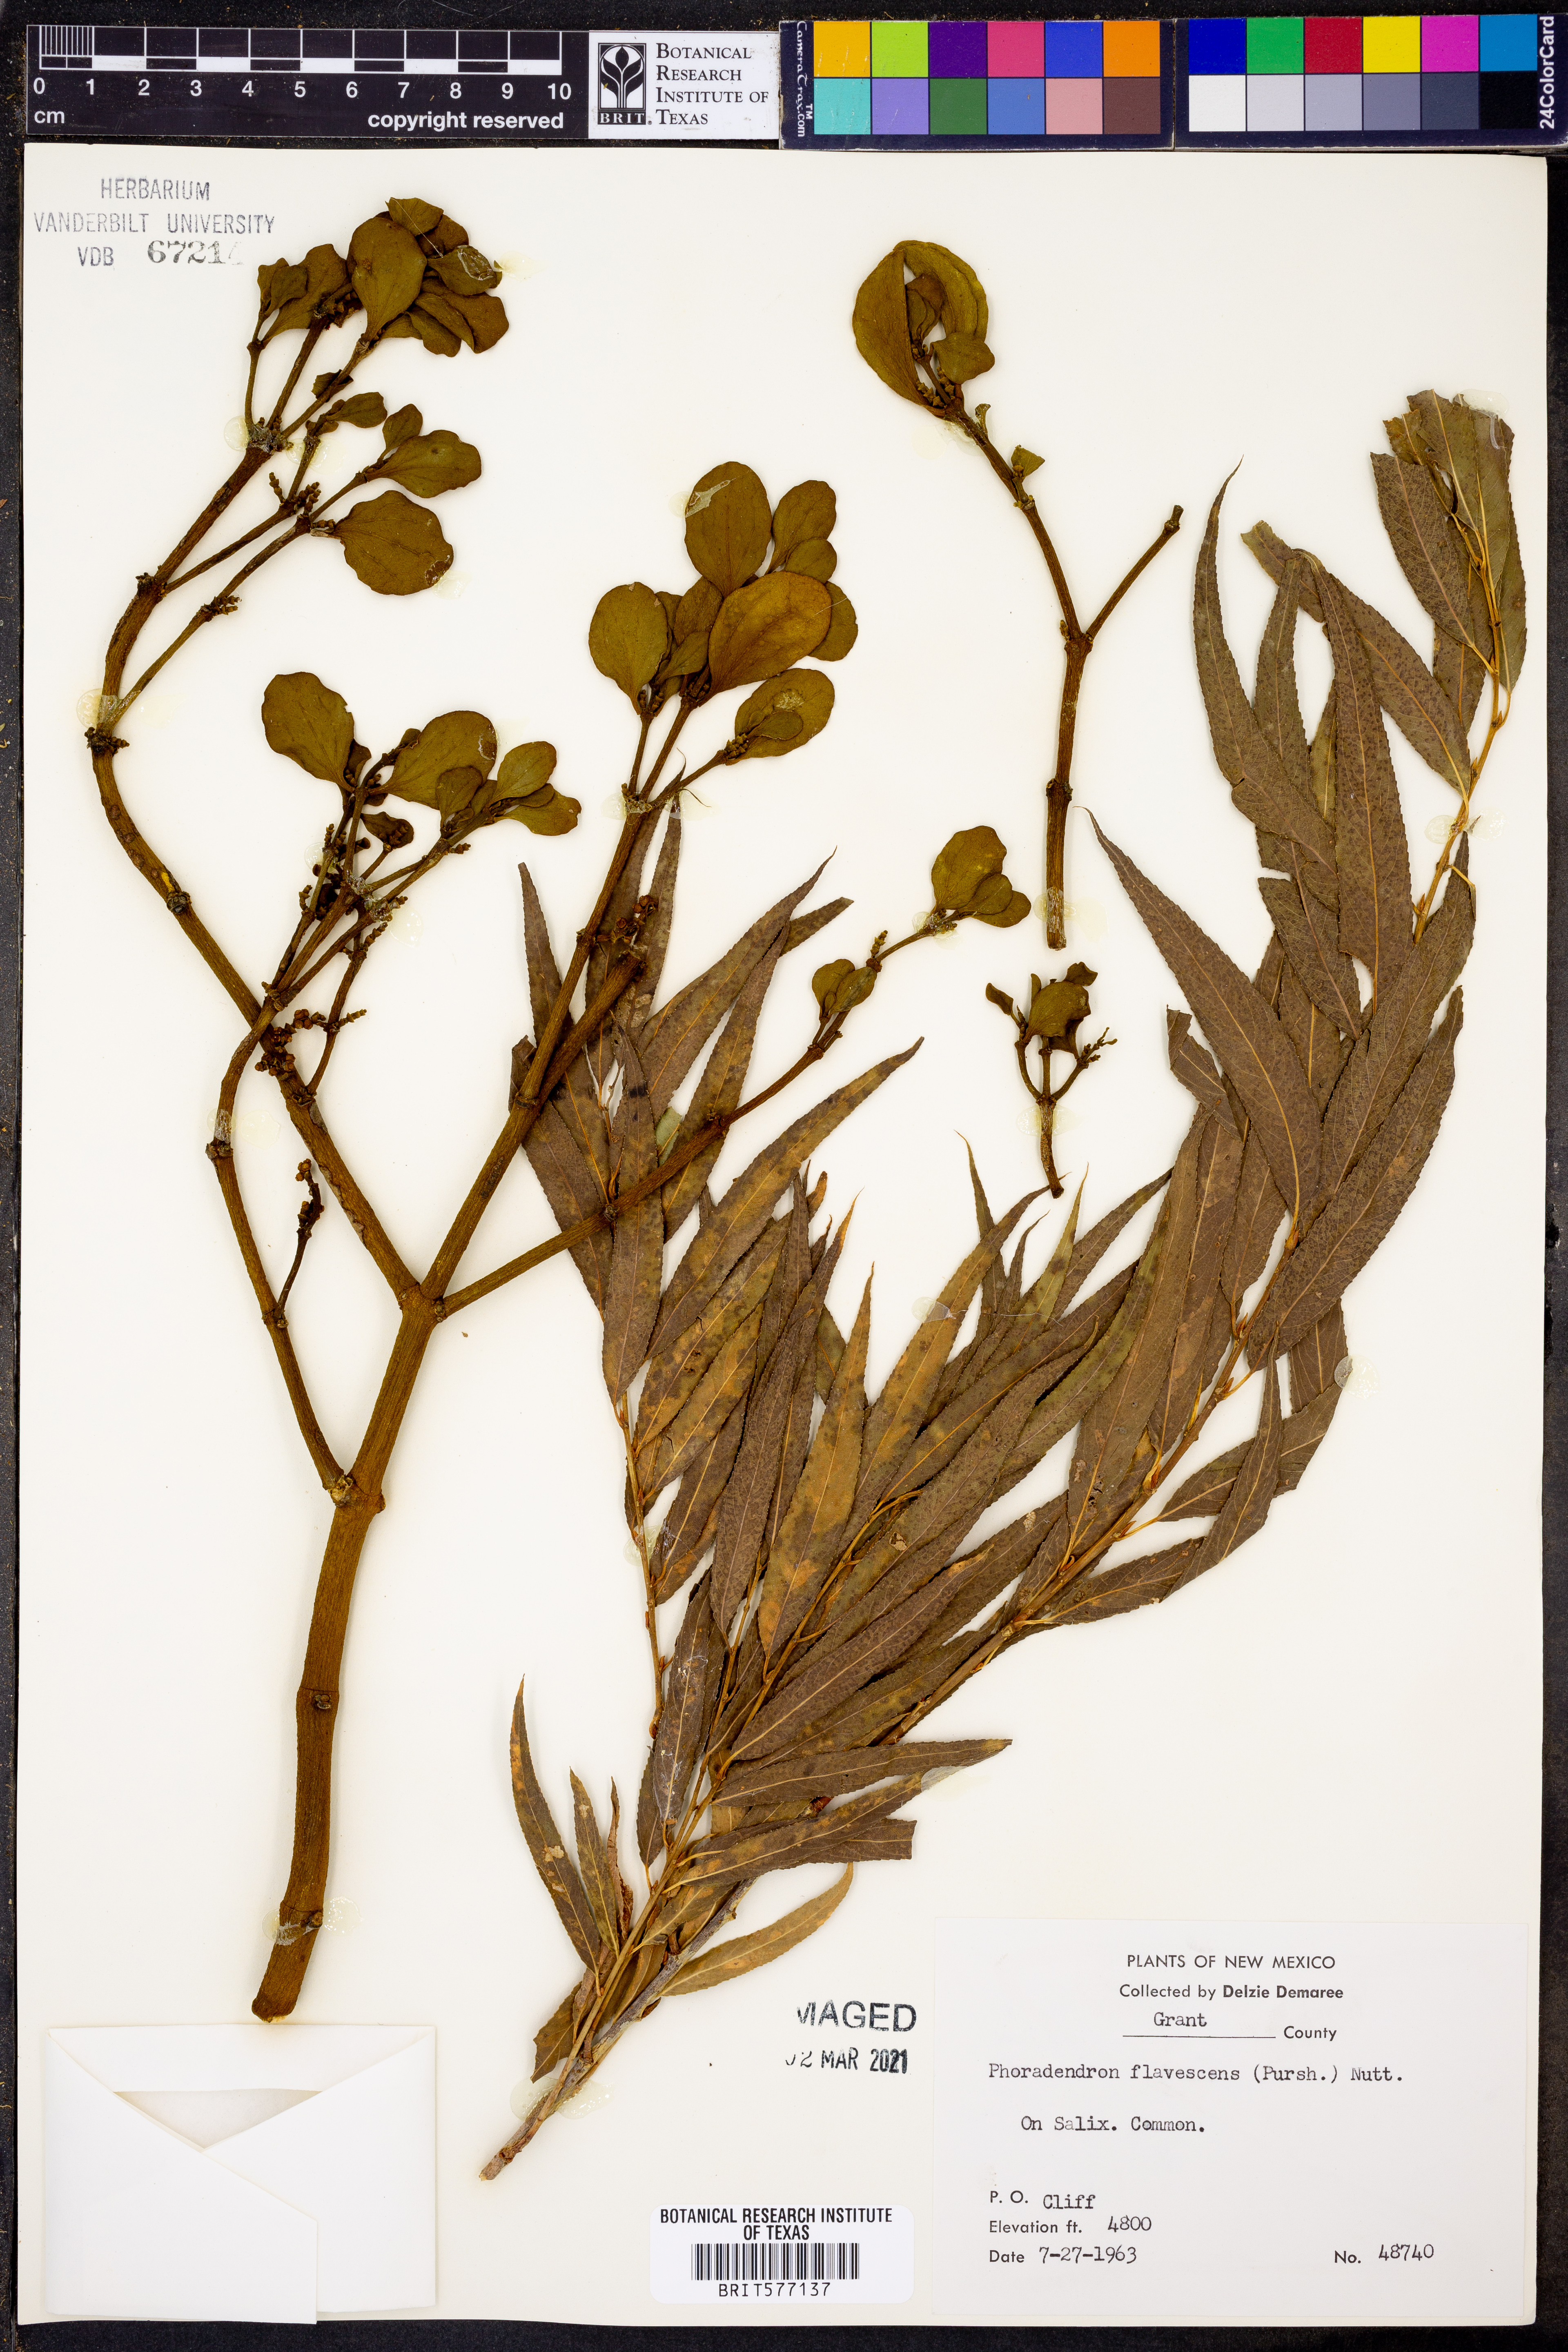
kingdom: Plantae
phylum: Tracheophyta
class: Magnoliopsida
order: Santalales
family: Viscaceae
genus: Phoradendron
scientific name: Phoradendron leucarpum
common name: Pacific mistletoe
